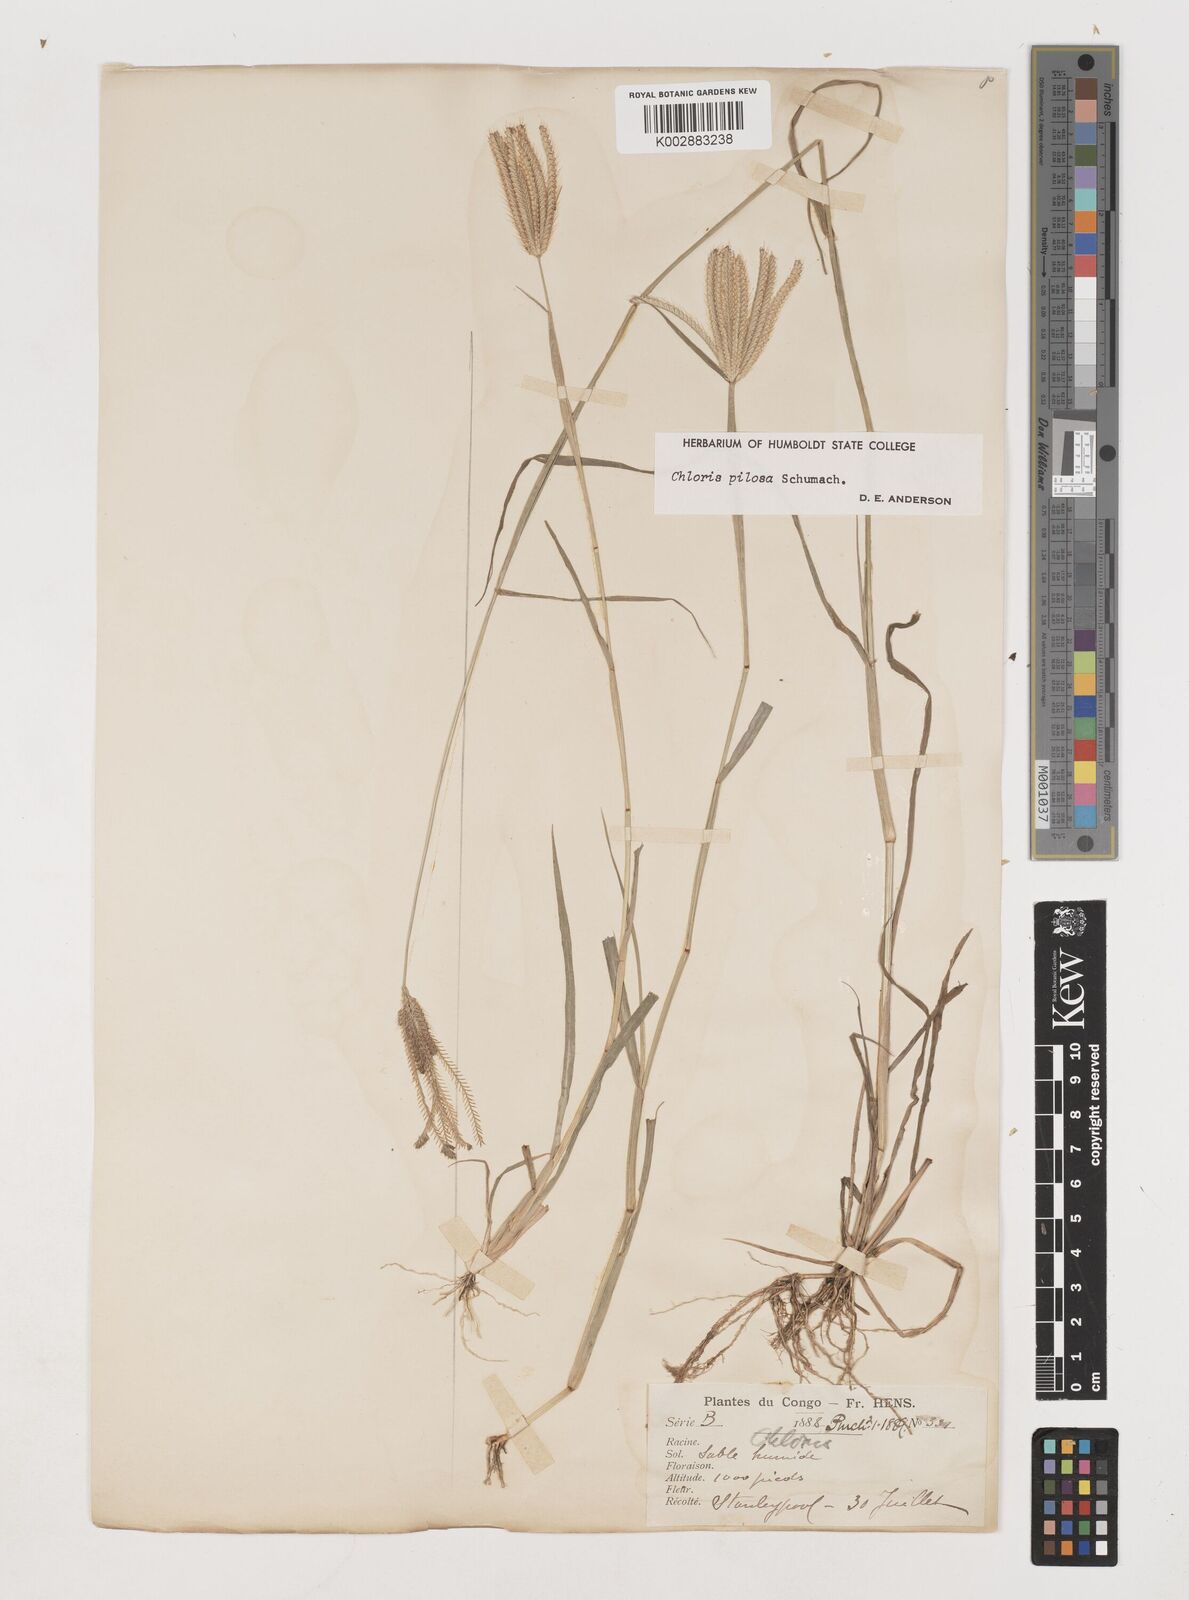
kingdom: Plantae
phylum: Tracheophyta
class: Liliopsida
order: Poales
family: Poaceae
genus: Chloris
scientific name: Chloris pilosa
